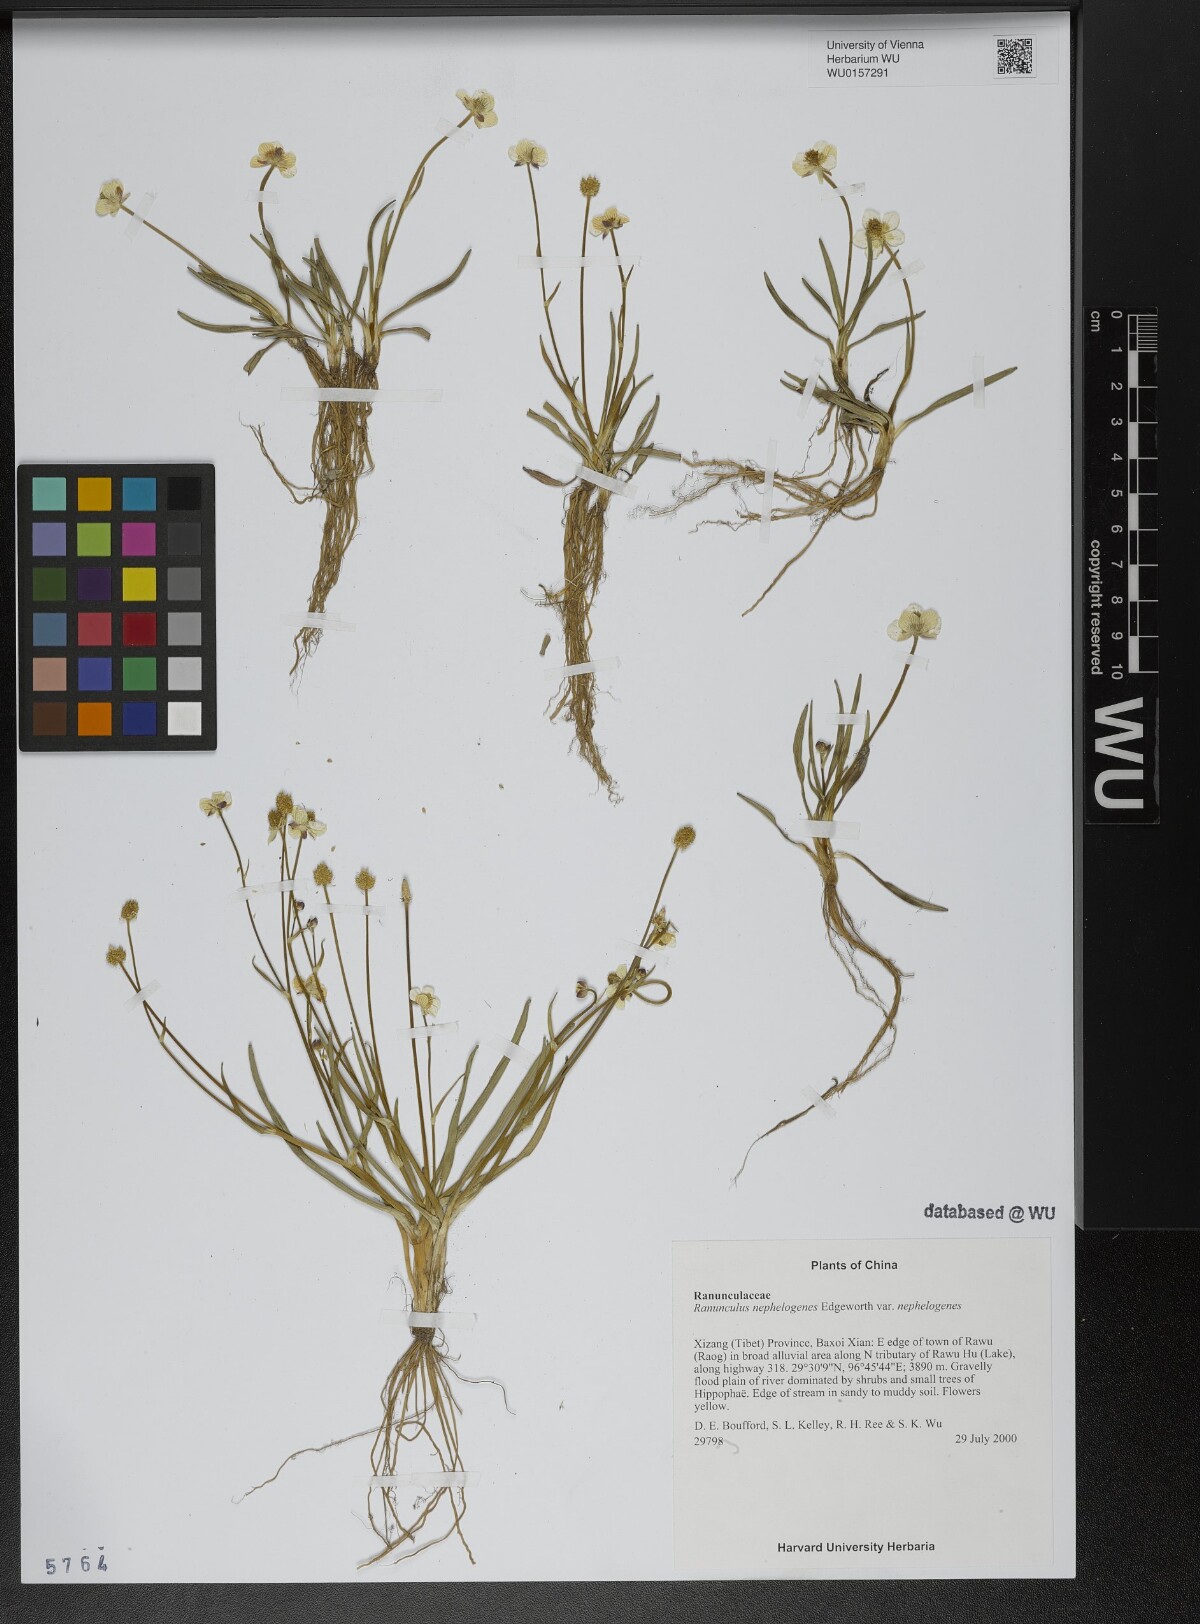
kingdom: Plantae
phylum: Tracheophyta
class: Magnoliopsida
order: Ranunculales
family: Ranunculaceae
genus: Ranunculus
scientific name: Ranunculus nephelogenes
